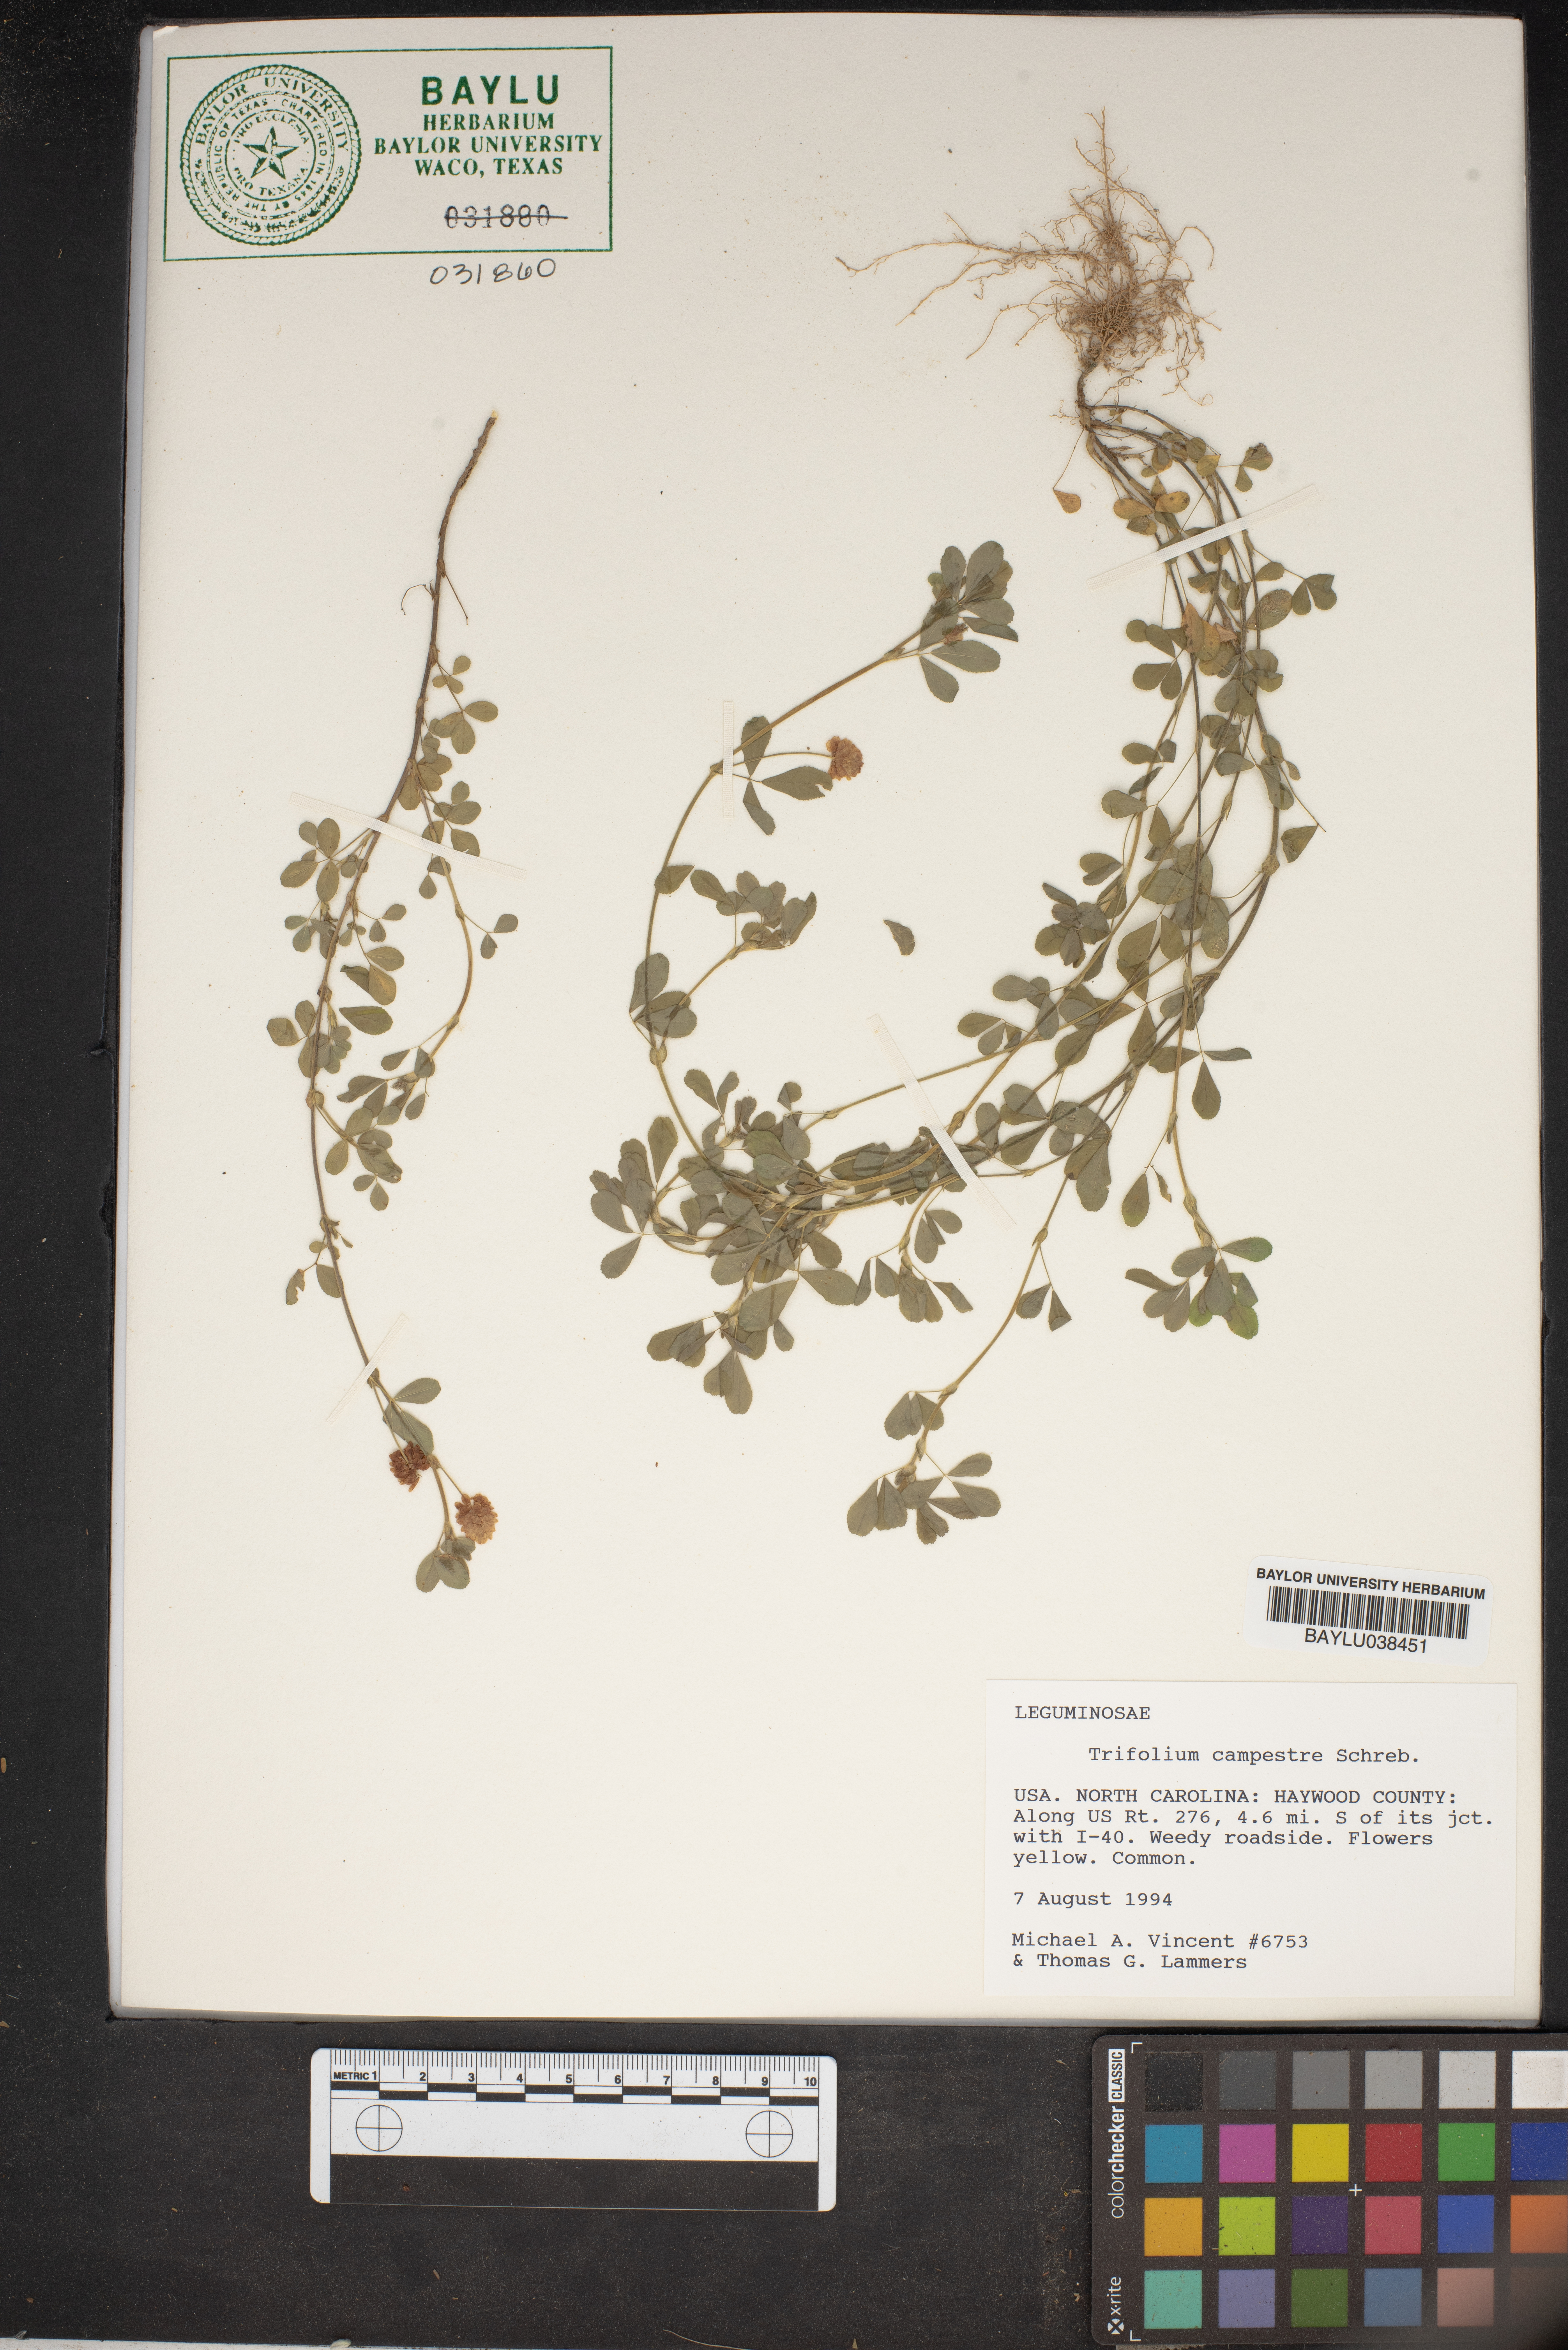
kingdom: Plantae
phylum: Tracheophyta
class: Magnoliopsida
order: Fabales
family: Fabaceae
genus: Trifolium
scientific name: Trifolium campestre
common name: Field clover
